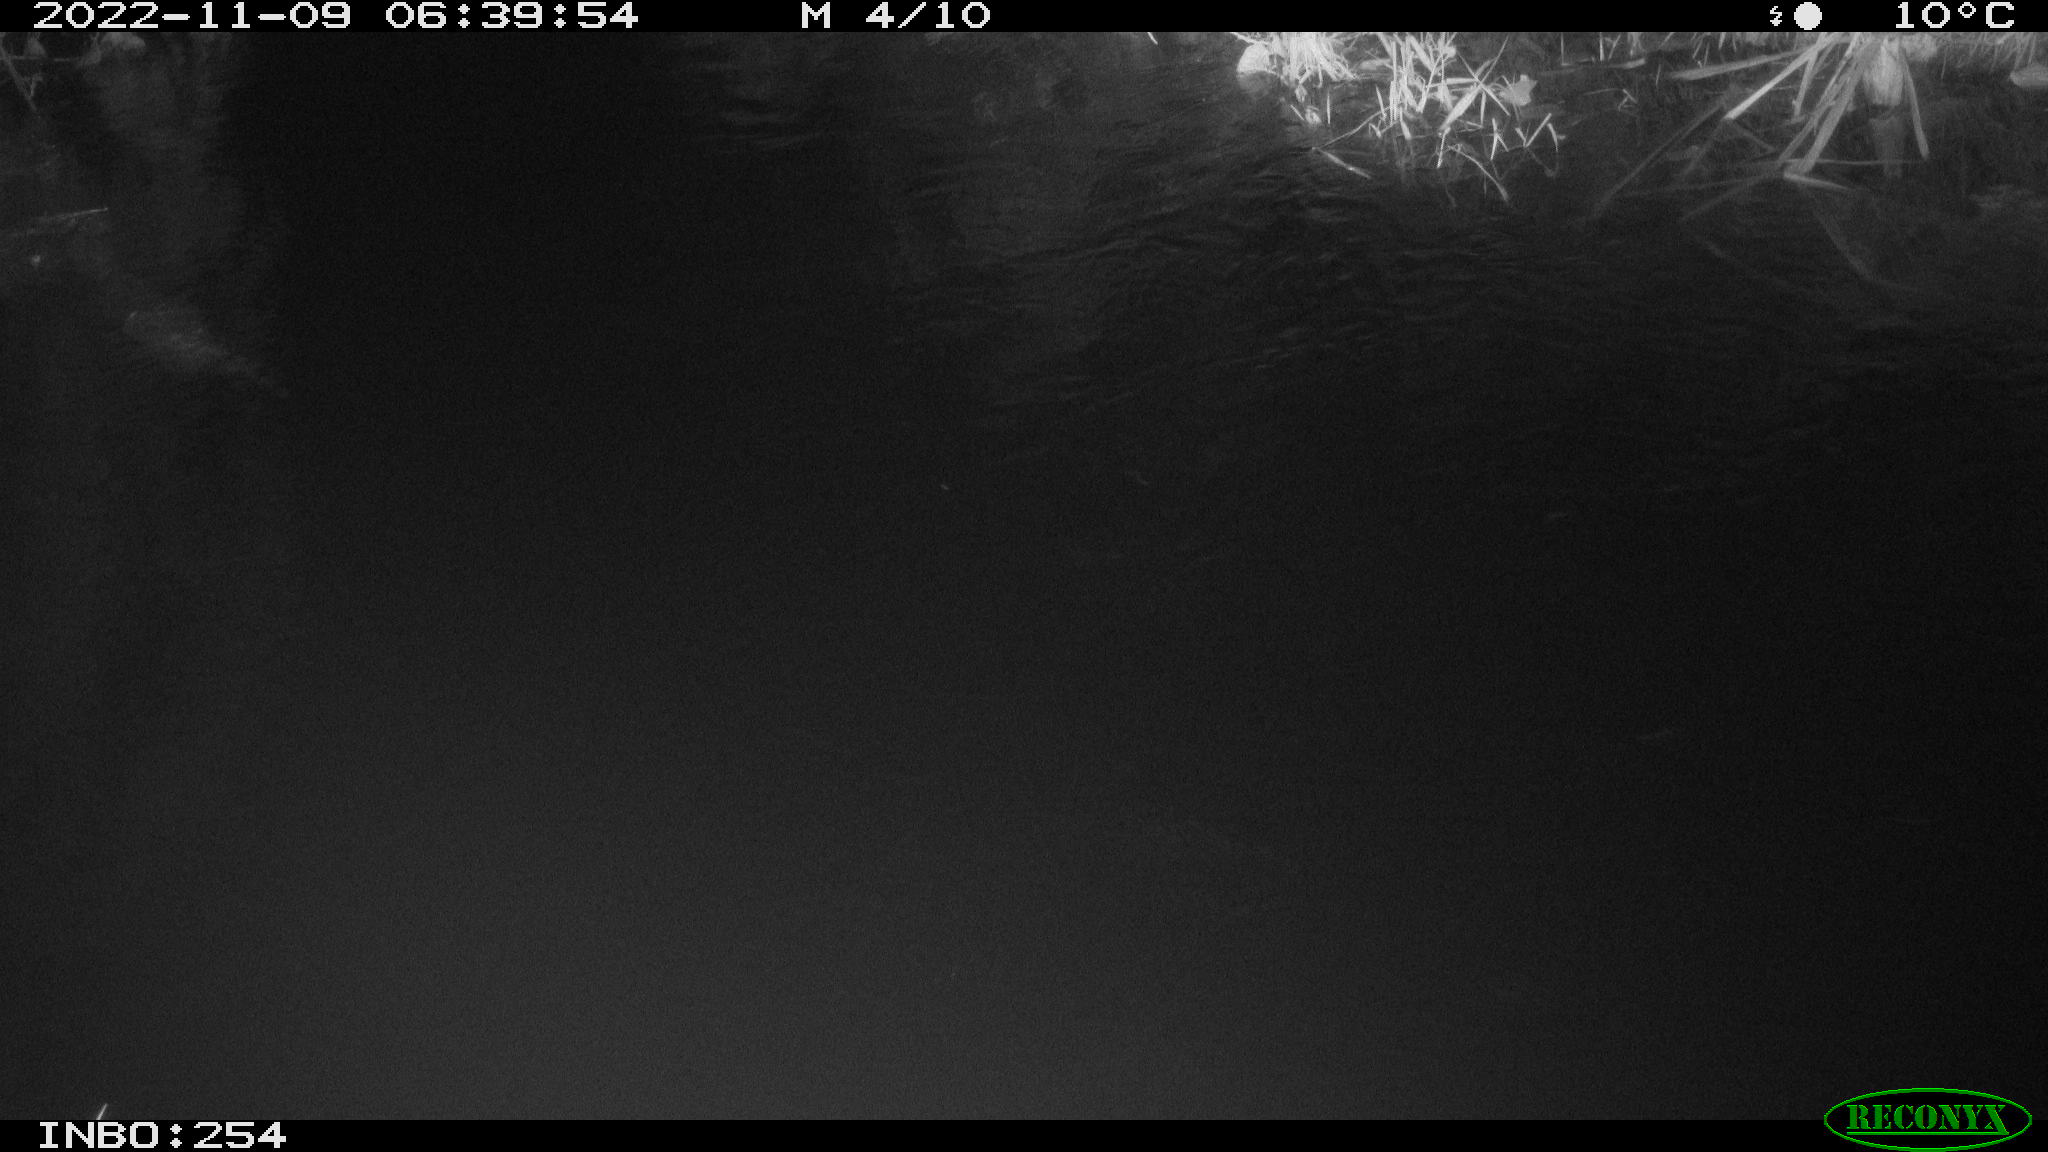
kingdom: Animalia
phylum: Chordata
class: Aves
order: Anseriformes
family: Anatidae
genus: Anas
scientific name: Anas
